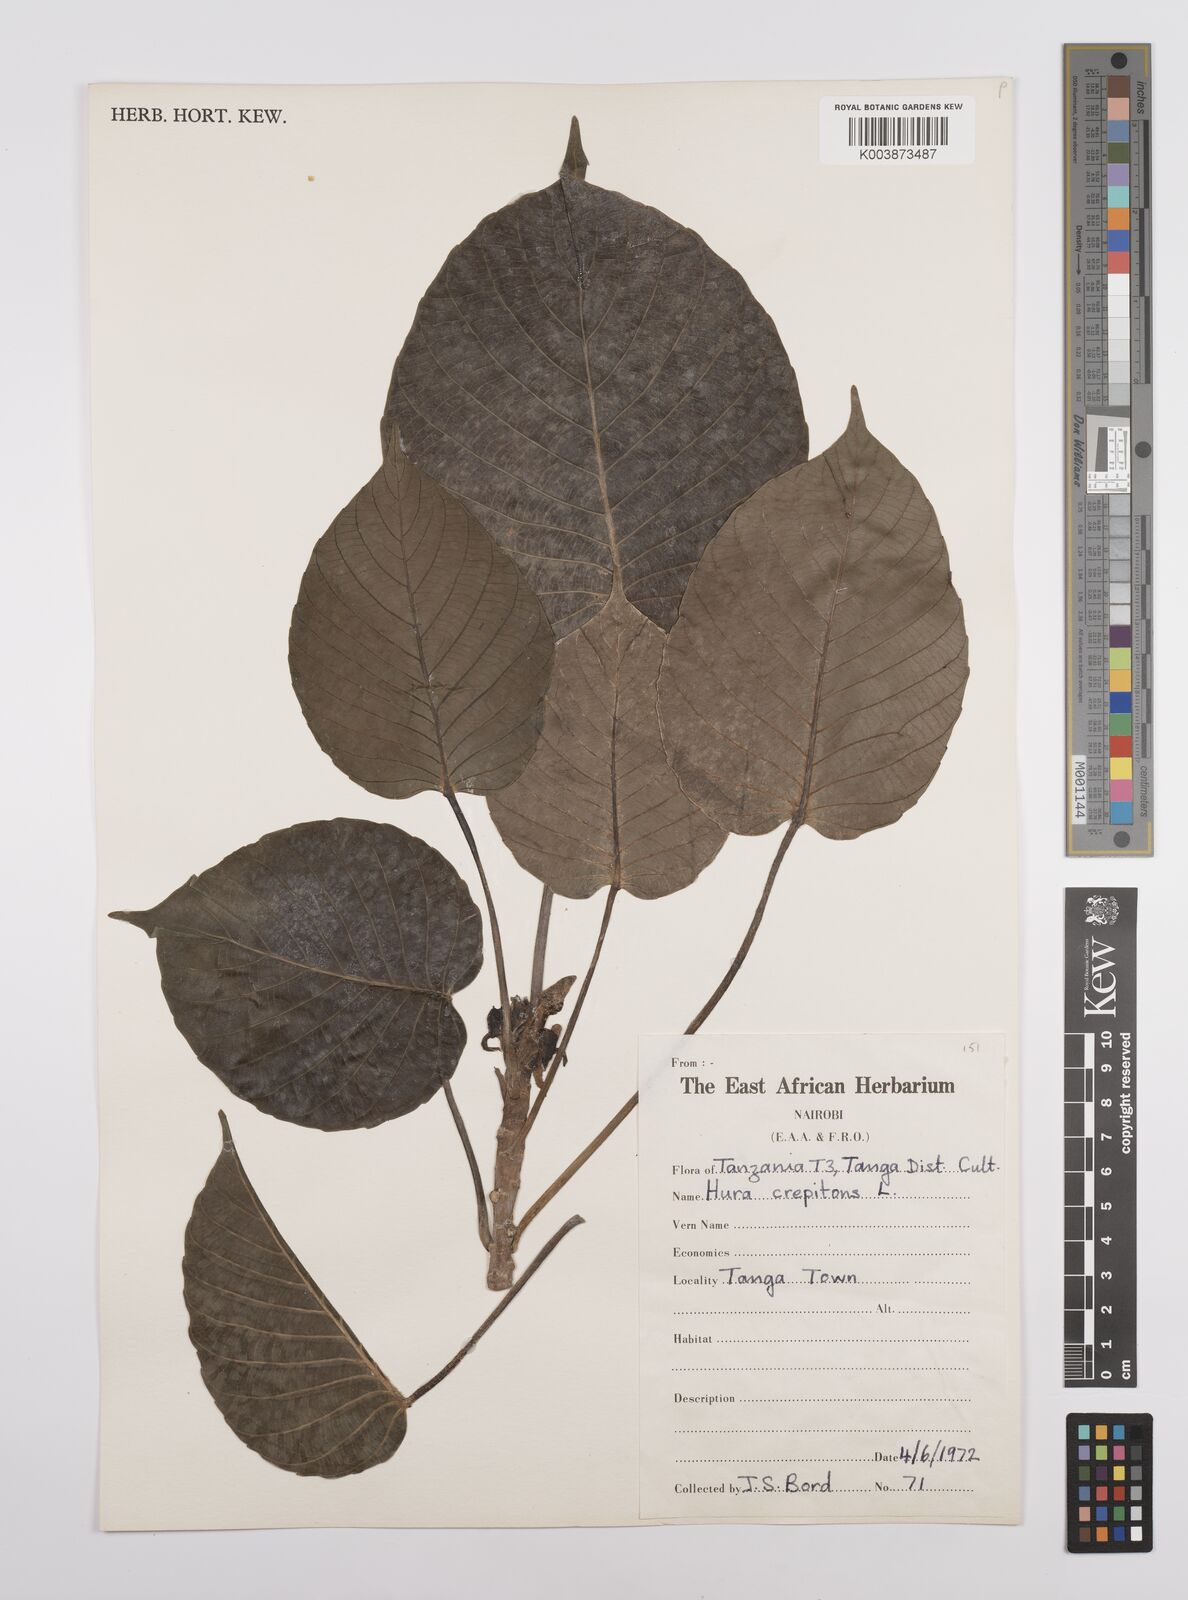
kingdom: Plantae
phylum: Tracheophyta
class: Magnoliopsida
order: Malpighiales
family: Euphorbiaceae
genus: Hura
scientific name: Hura crepitans
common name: Sandboxtree
